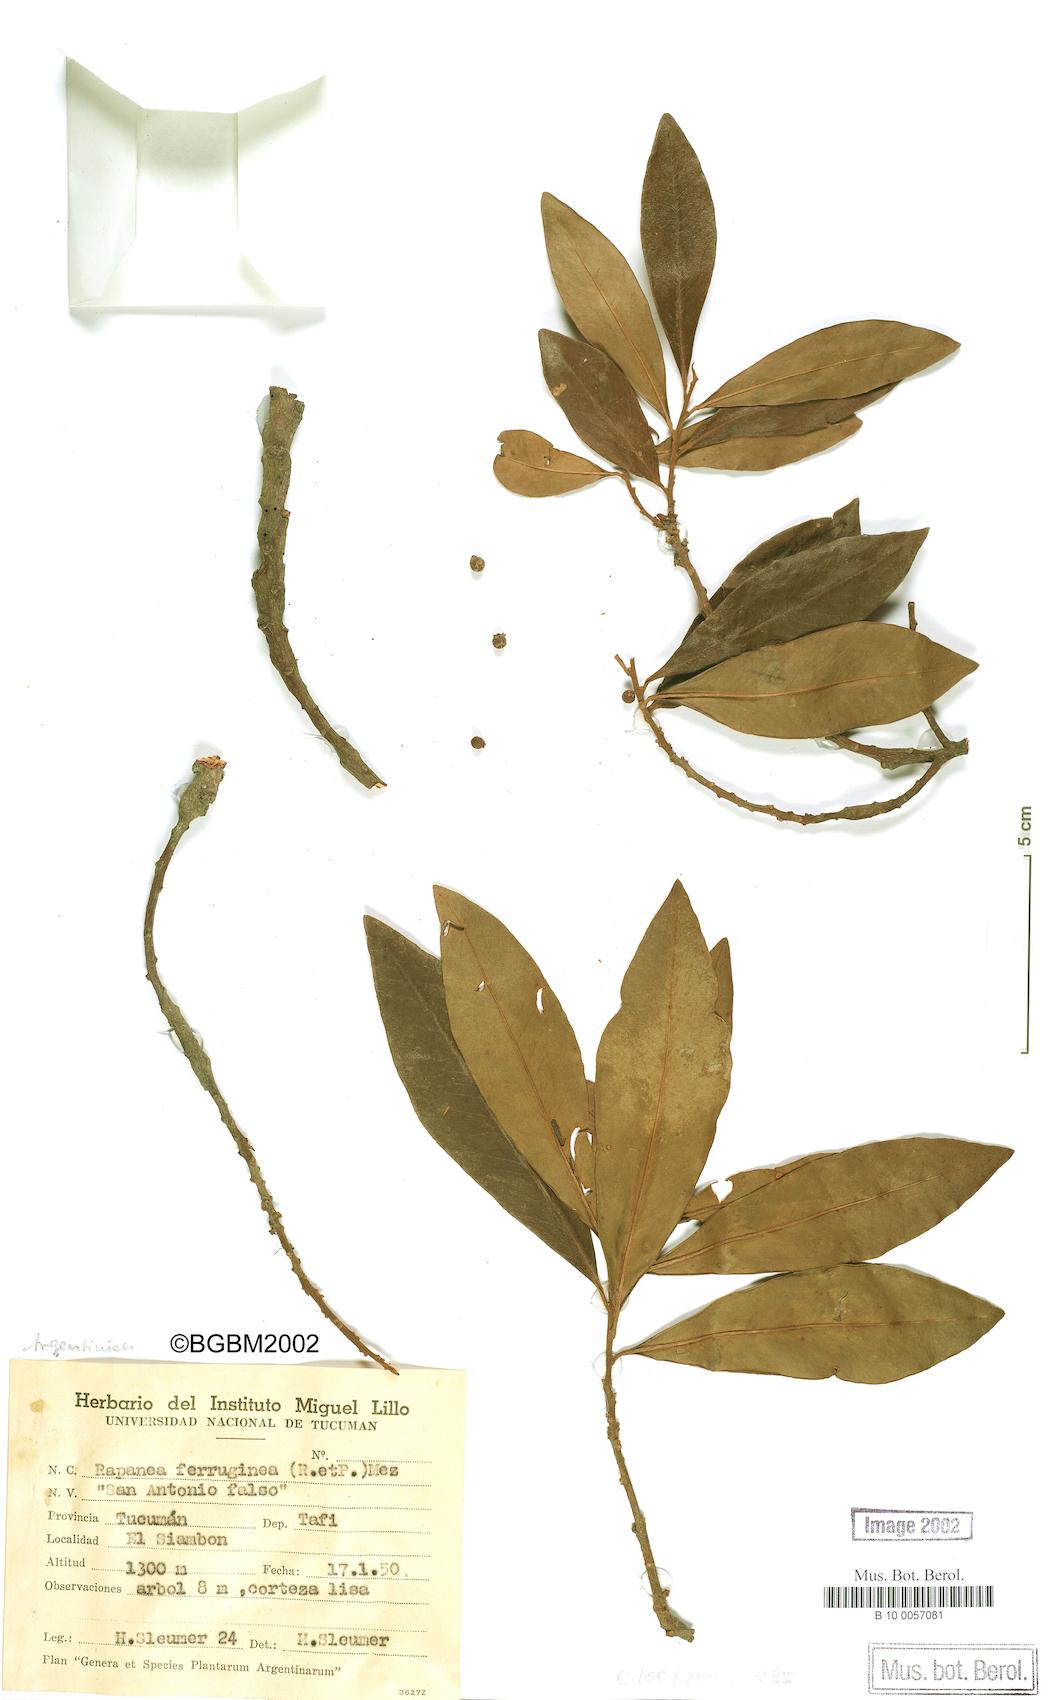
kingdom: Plantae
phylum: Tracheophyta
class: Magnoliopsida
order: Ericales
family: Primulaceae
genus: Myrsine
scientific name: Myrsine coriacea
